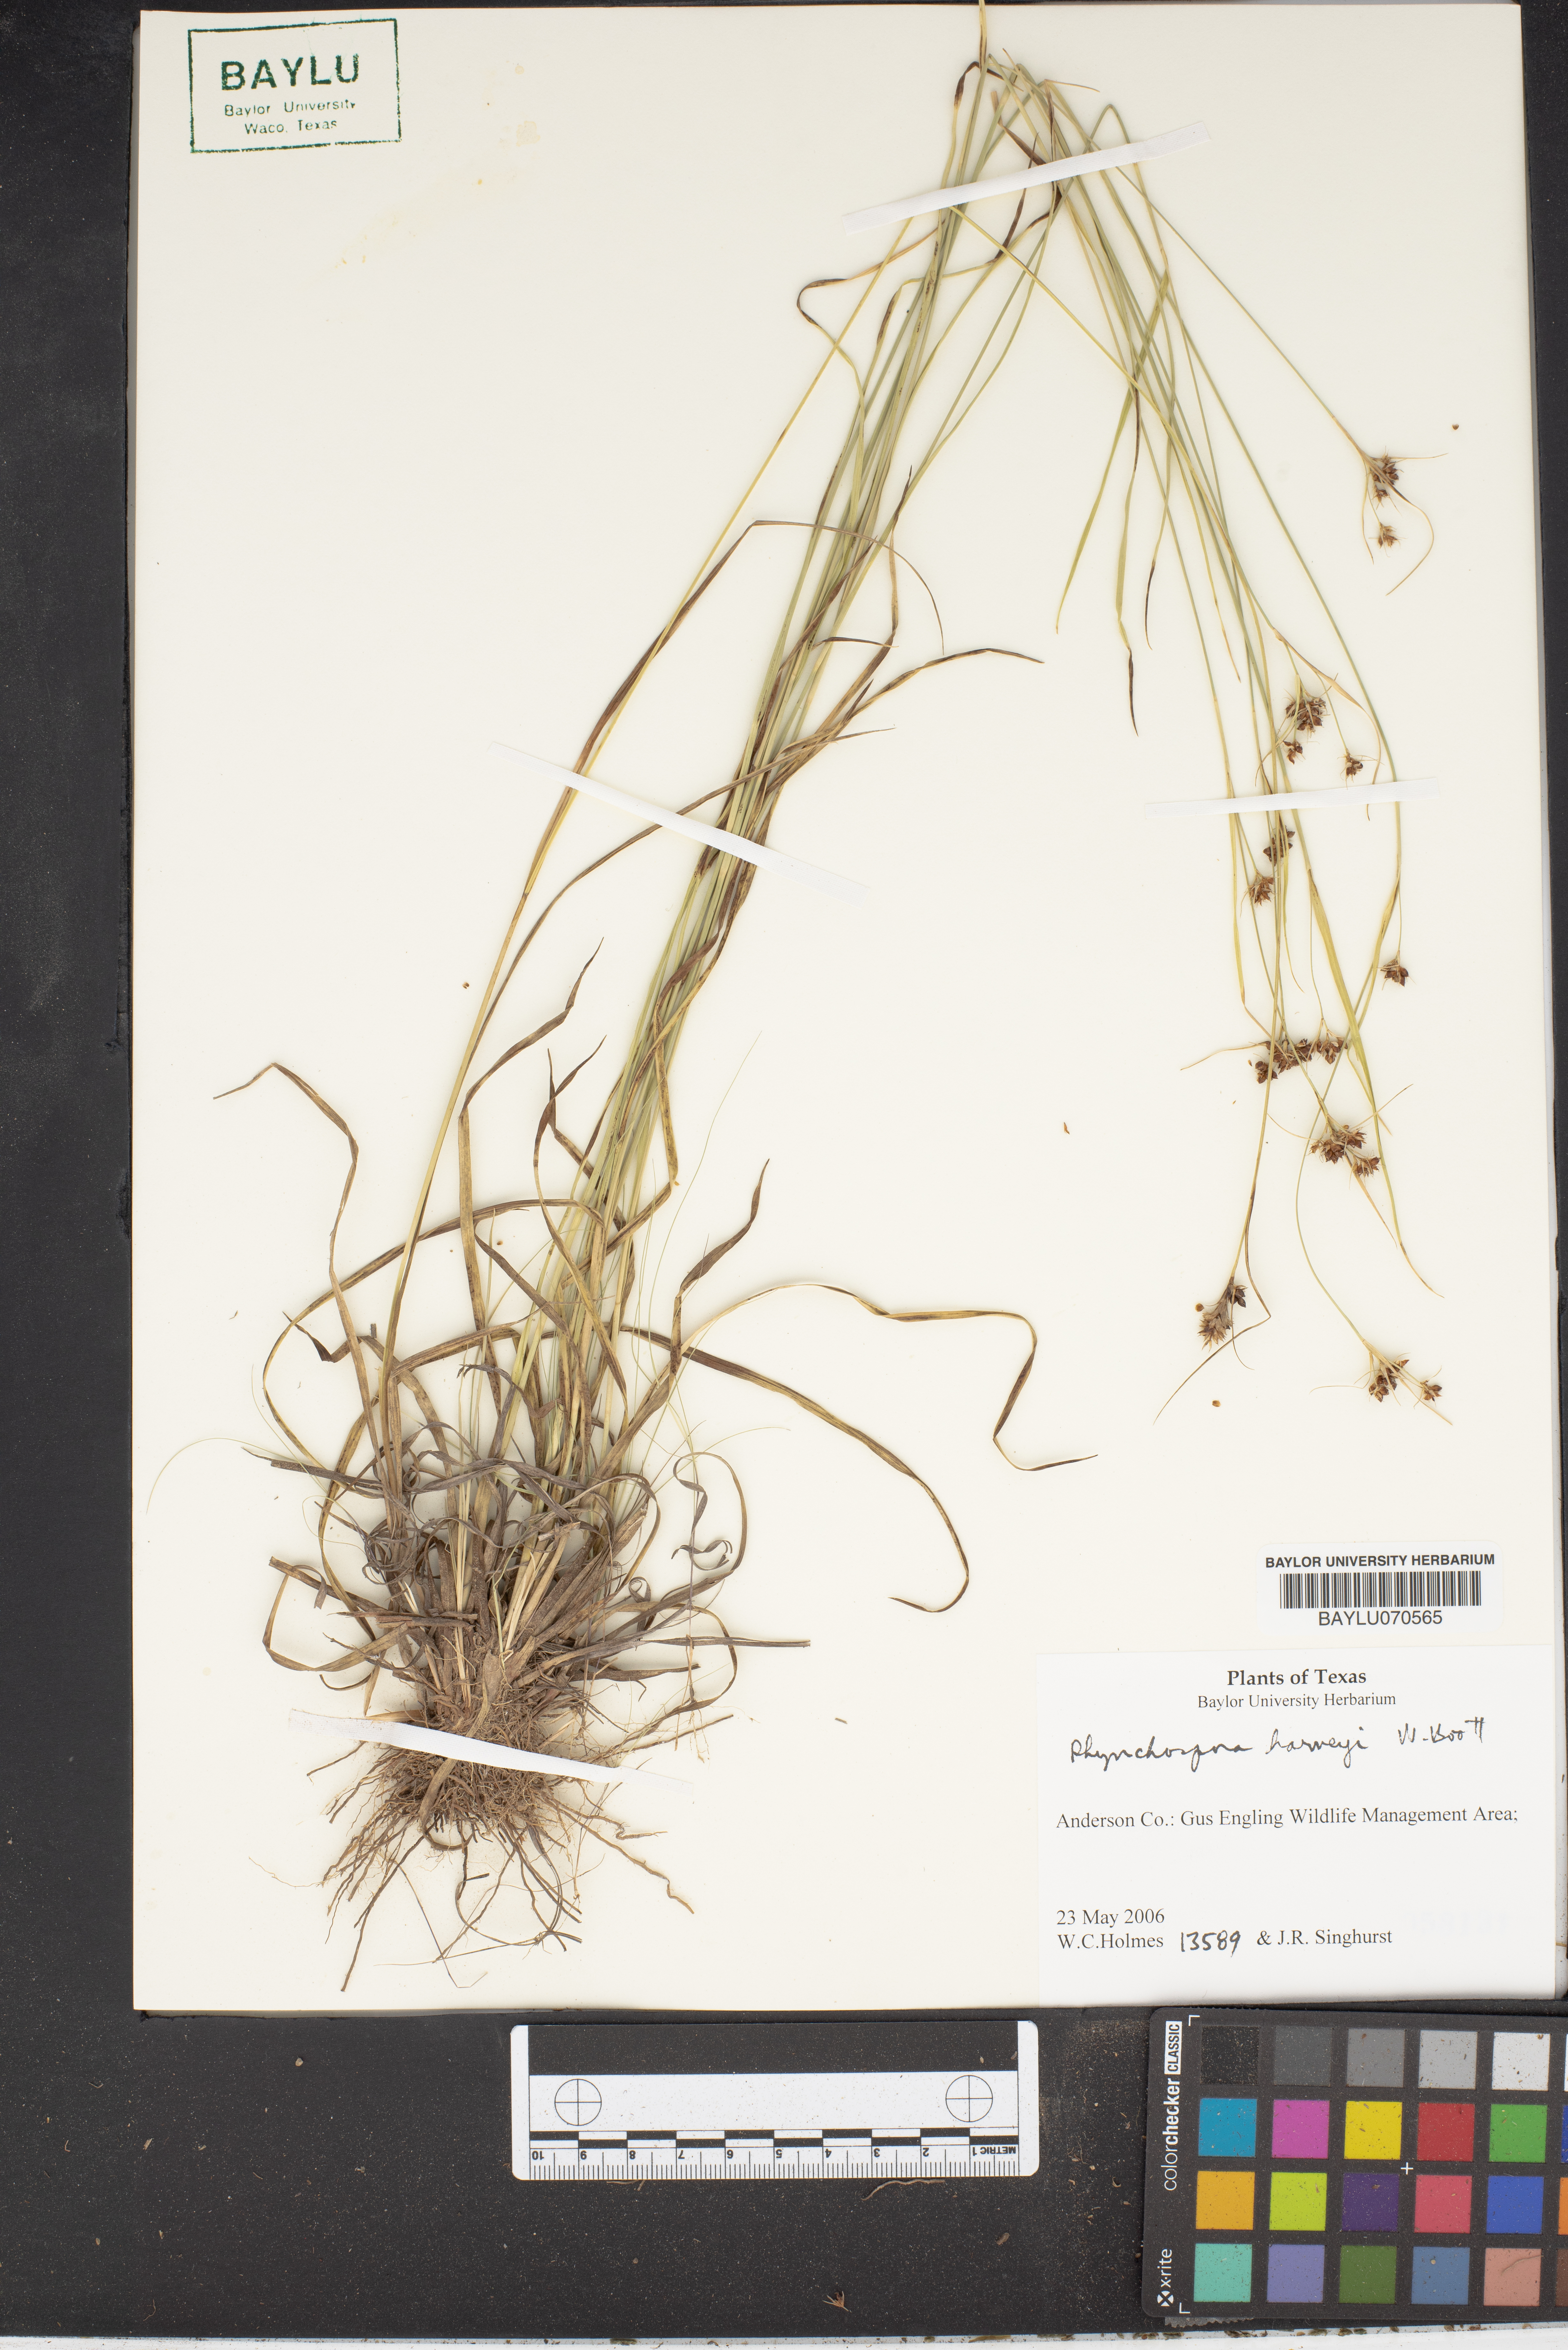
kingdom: Plantae
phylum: Tracheophyta
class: Liliopsida
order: Poales
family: Cyperaceae
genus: Rhynchospora
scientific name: Rhynchospora harveyi
